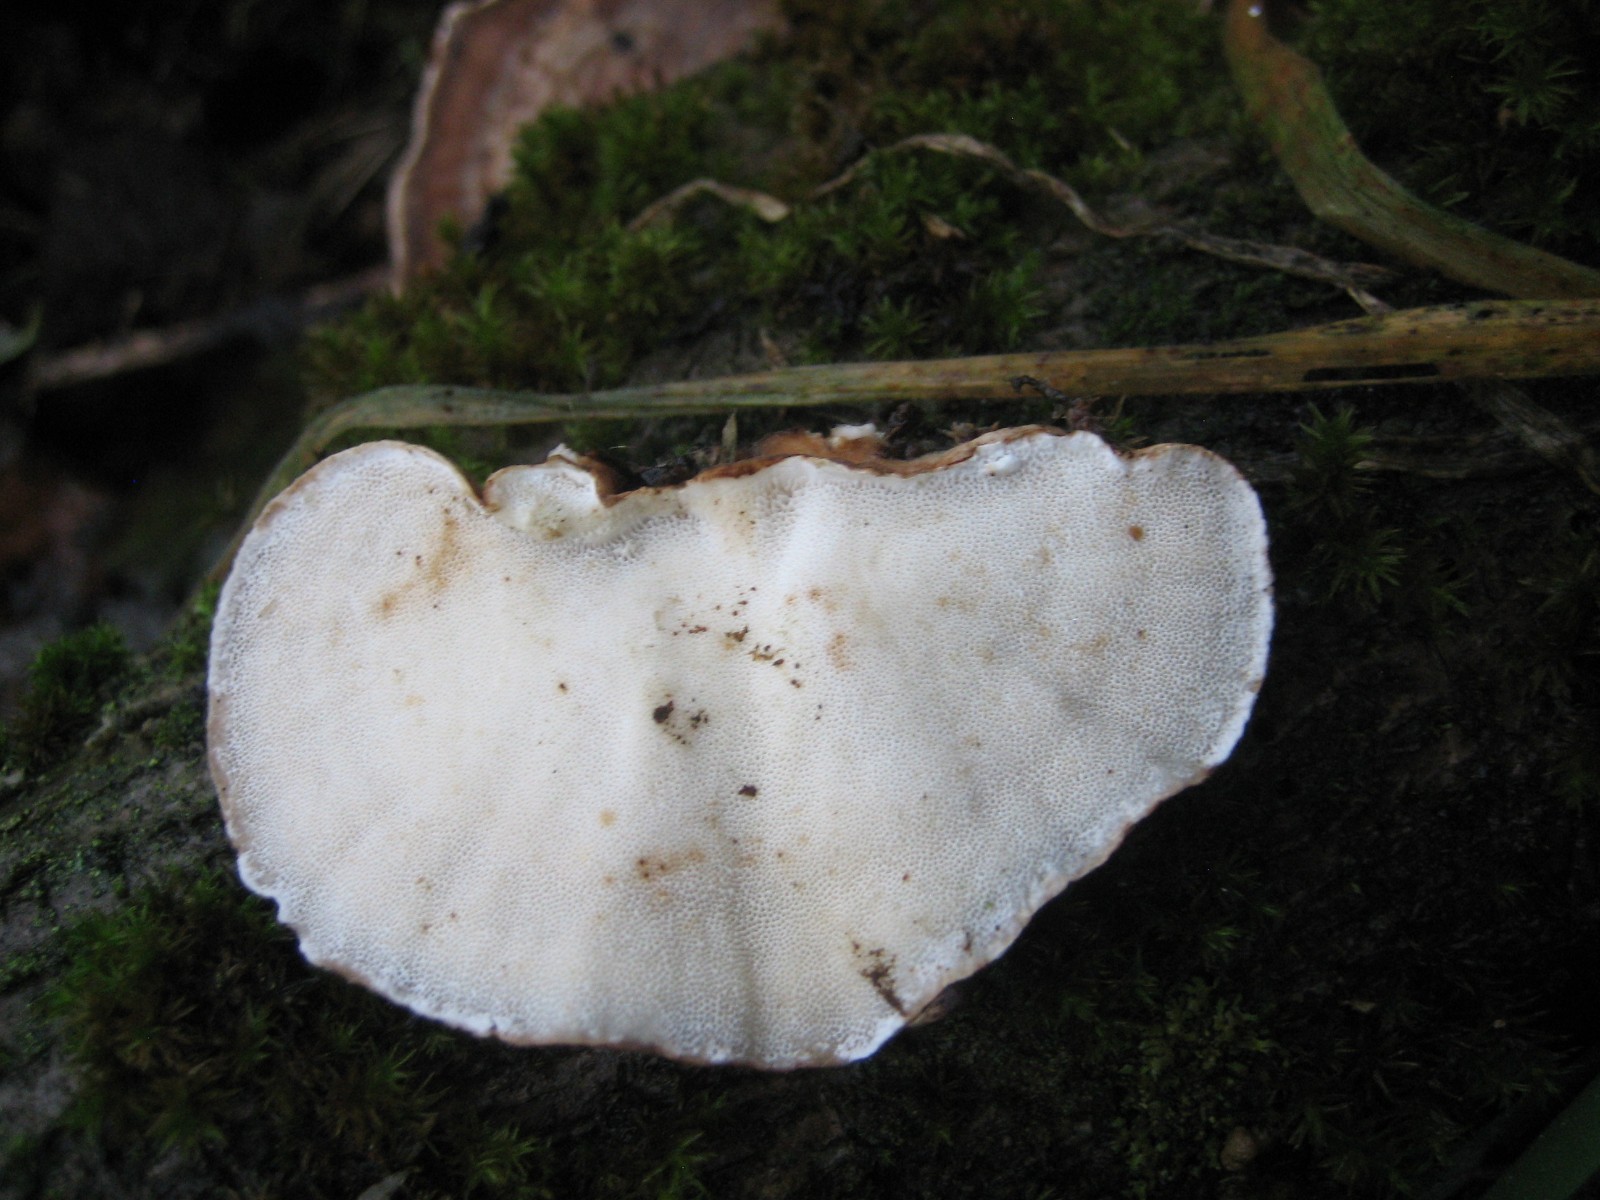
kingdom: Fungi
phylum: Basidiomycota
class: Agaricomycetes
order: Polyporales
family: Polyporaceae
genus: Trametes
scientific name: Trametes versicolor
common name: broget læderporesvamp
